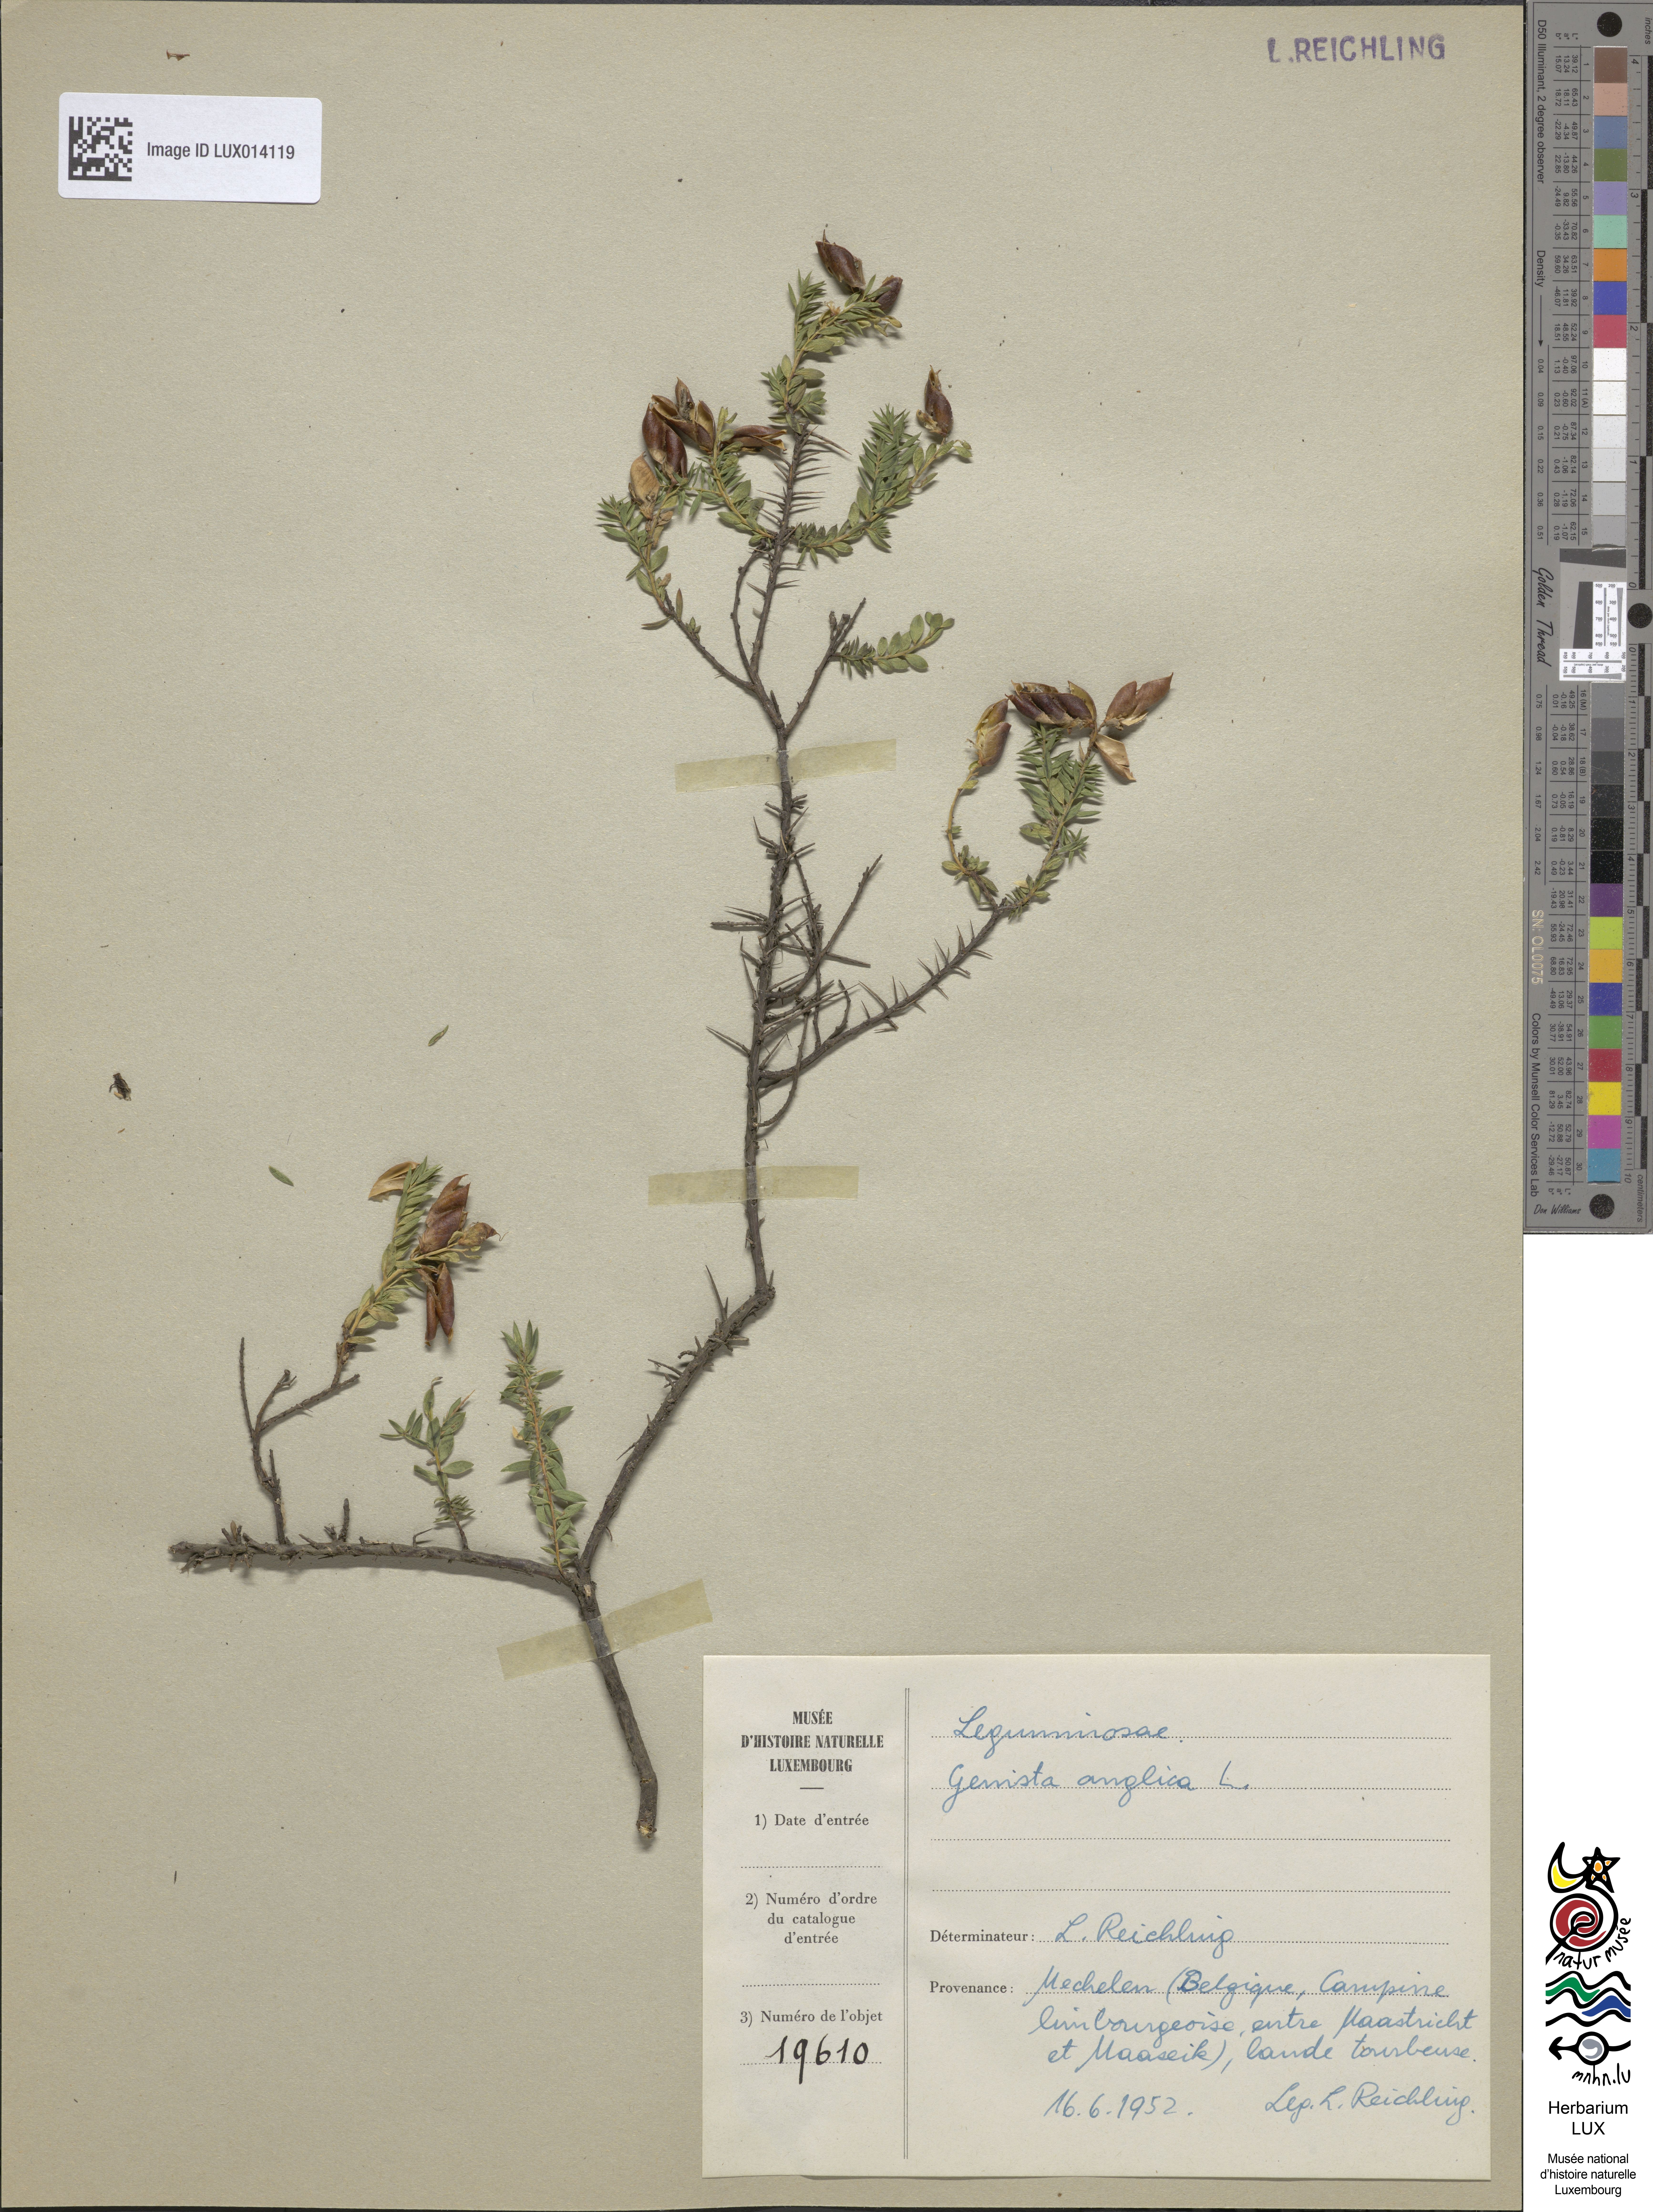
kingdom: Plantae
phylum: Tracheophyta
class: Magnoliopsida
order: Fabales
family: Fabaceae
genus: Genista
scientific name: Genista anglica
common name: Petty whin
